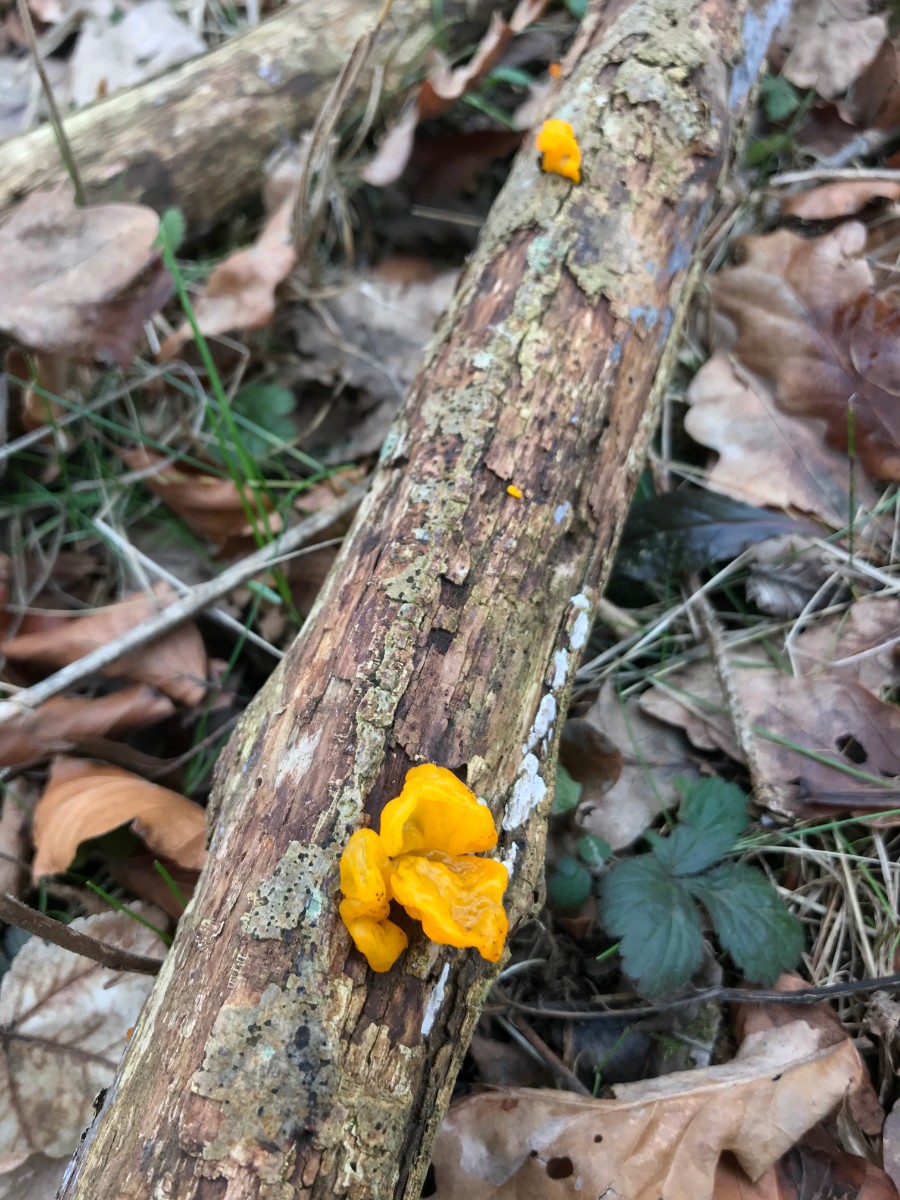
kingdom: Fungi
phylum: Basidiomycota
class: Tremellomycetes
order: Tremellales
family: Tremellaceae
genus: Tremella
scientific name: Tremella mesenterica
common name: gul bævresvamp
